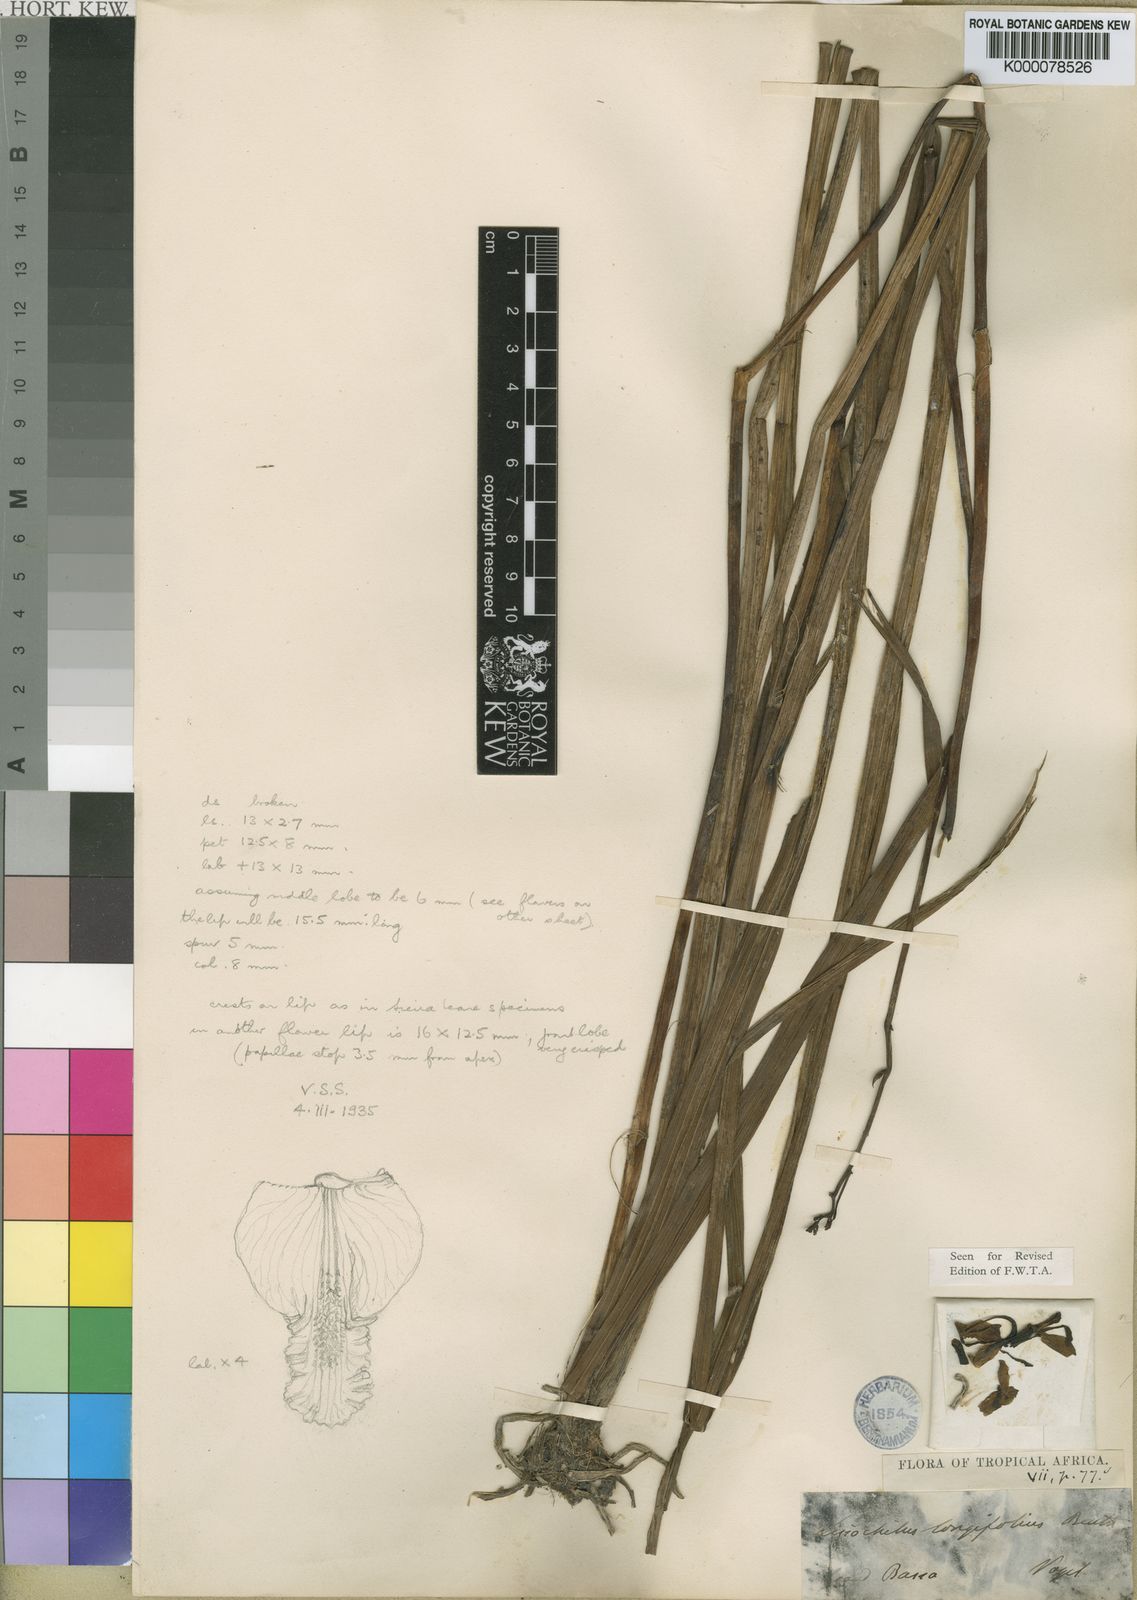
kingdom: Plantae
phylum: Tracheophyta
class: Liliopsida
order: Asparagales
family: Orchidaceae
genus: Eulophia
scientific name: Eulophia caricifolia
